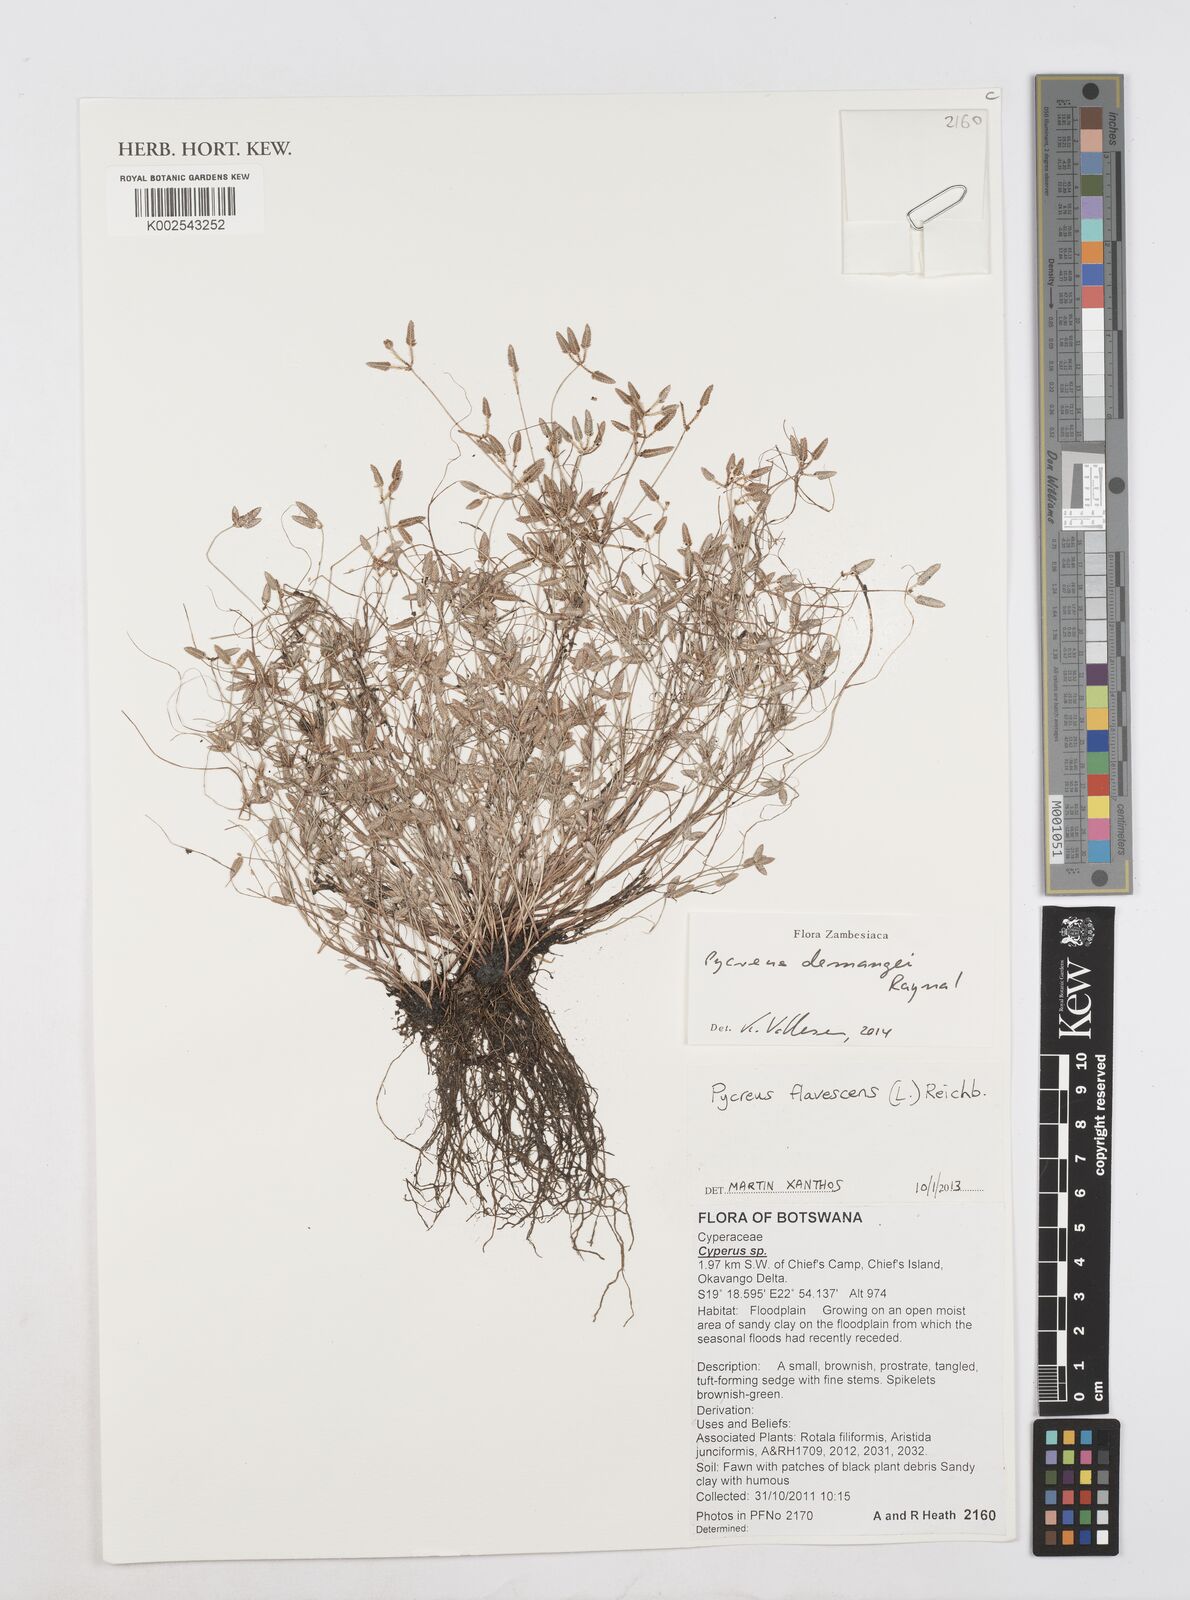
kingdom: Plantae
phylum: Tracheophyta
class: Liliopsida
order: Poales
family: Cyperaceae
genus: Cyperus
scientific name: Cyperus demangei
